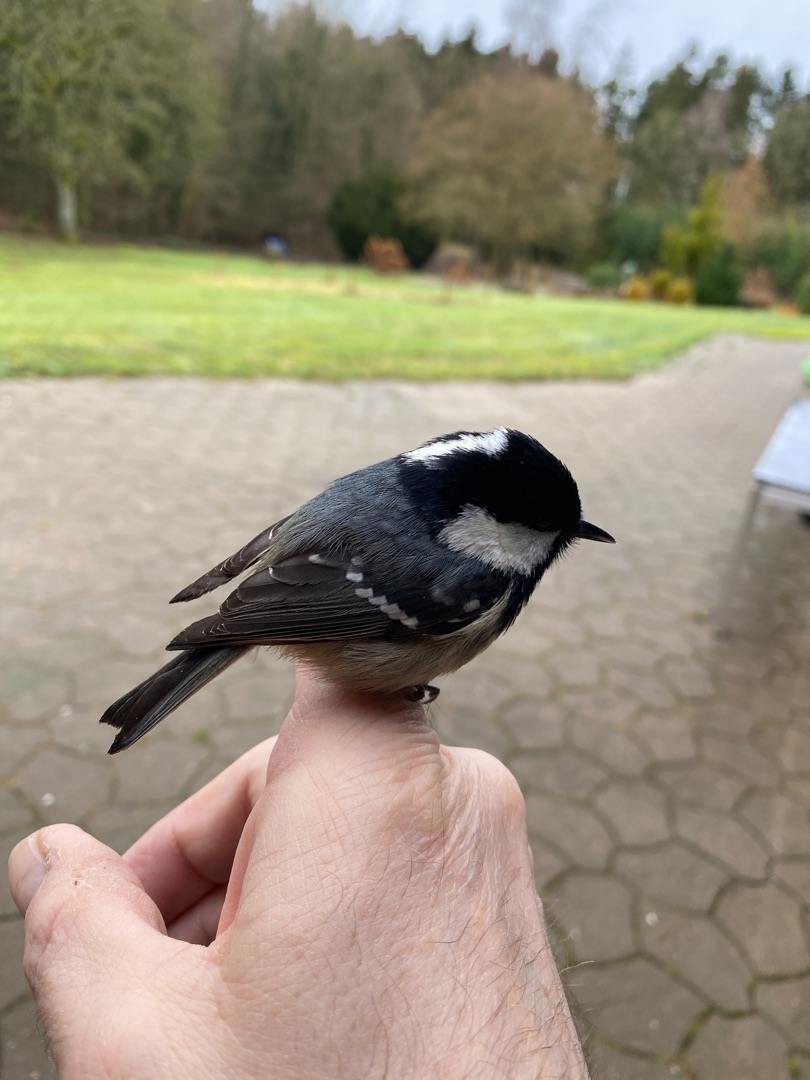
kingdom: Animalia
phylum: Chordata
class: Aves
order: Passeriformes
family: Paridae
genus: Periparus
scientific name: Periparus ater
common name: Sortmejse
